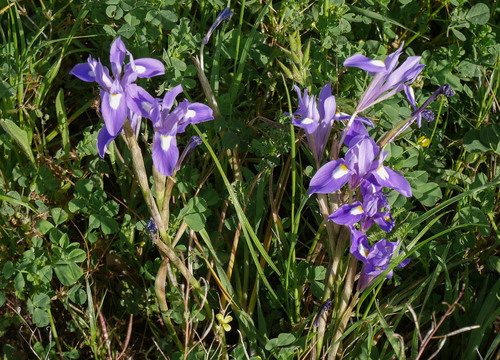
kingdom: Plantae
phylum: Tracheophyta
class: Liliopsida
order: Asparagales
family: Iridaceae
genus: Moraea
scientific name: Moraea sisyrinchium
